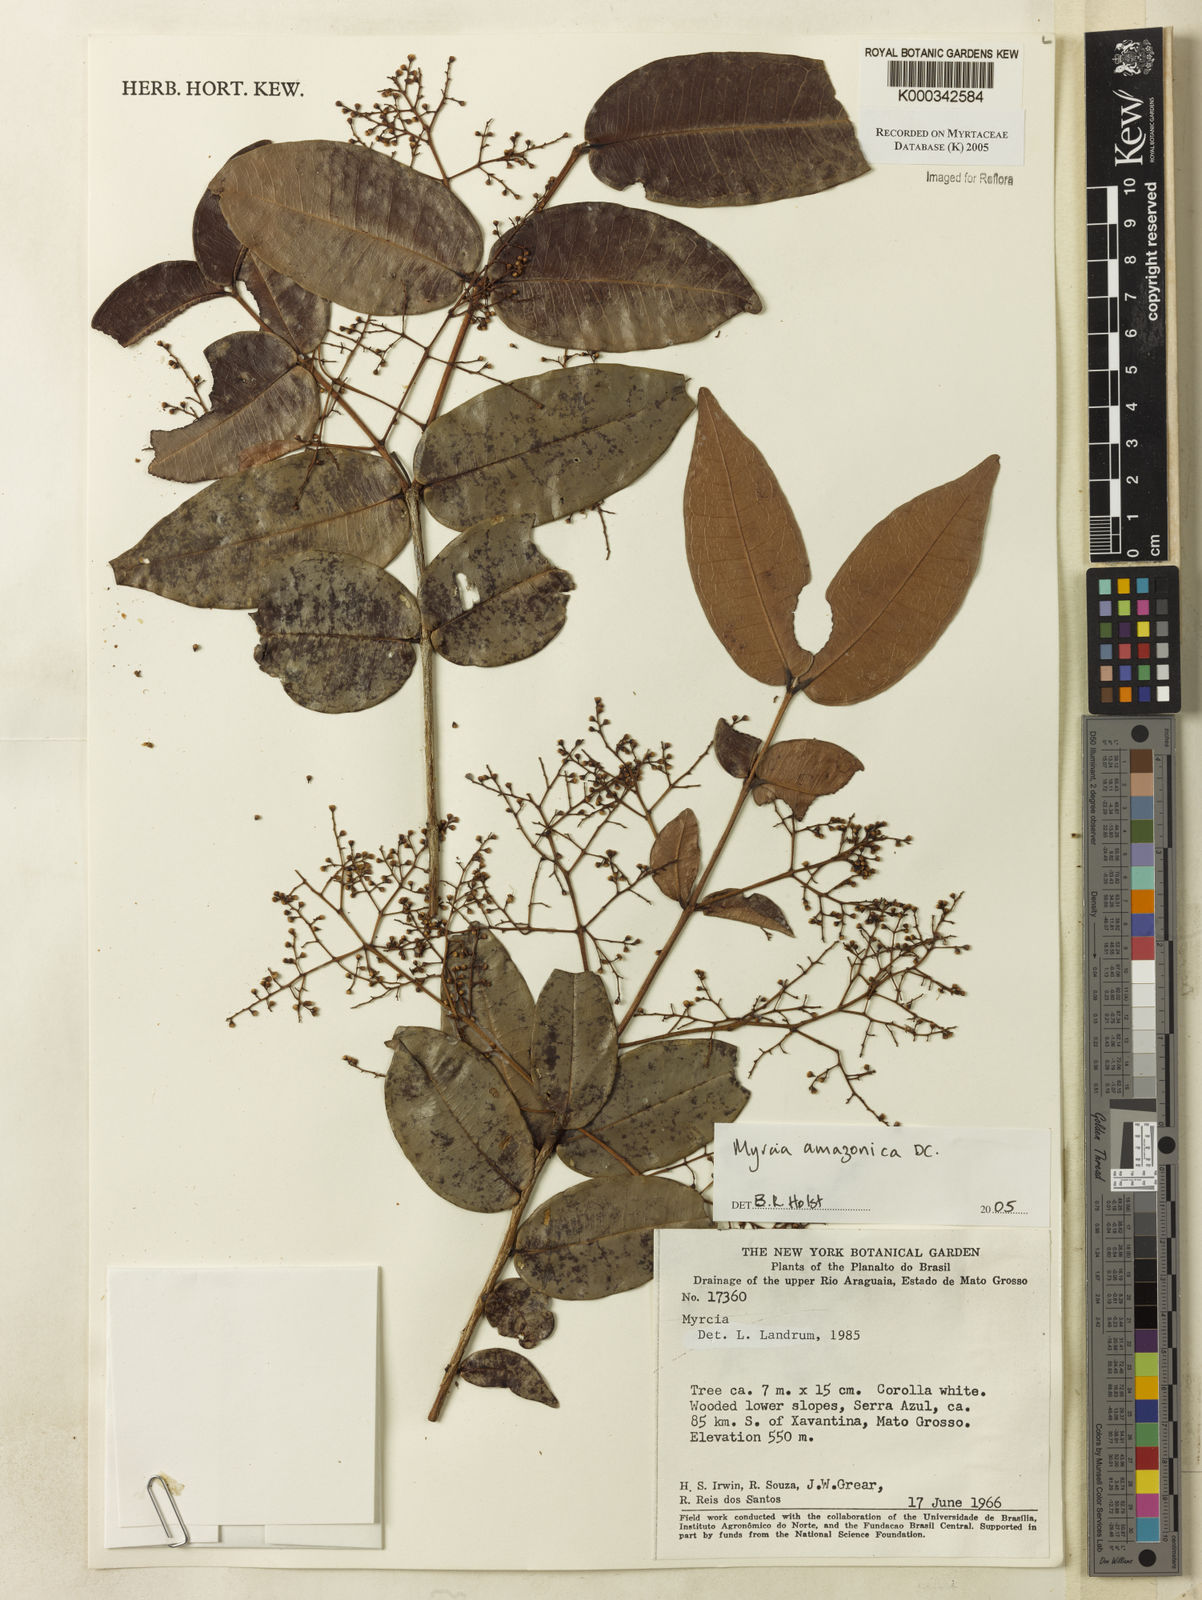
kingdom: Plantae
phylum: Tracheophyta
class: Magnoliopsida
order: Myrtales
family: Myrtaceae
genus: Myrcia
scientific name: Myrcia amazonica
